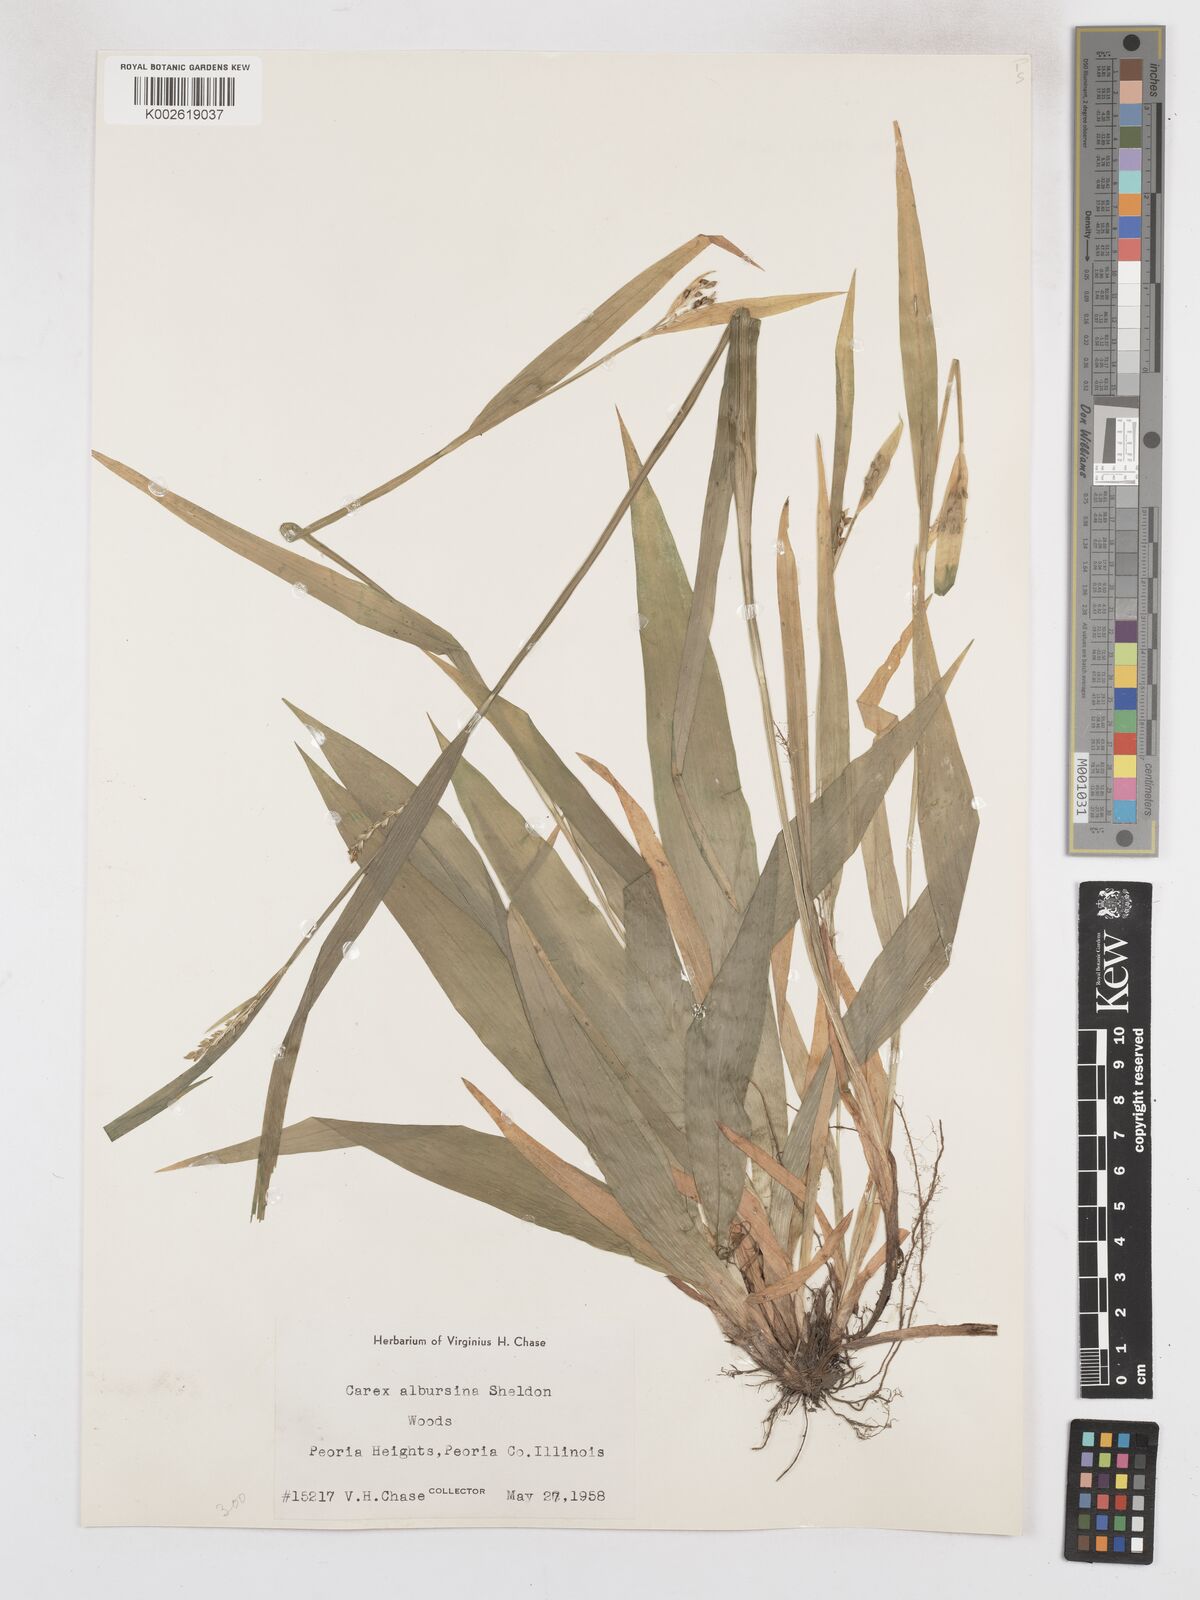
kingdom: Plantae
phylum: Tracheophyta
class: Liliopsida
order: Poales
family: Cyperaceae
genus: Carex
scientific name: Carex albursina
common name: Blunt-scale wood sedge
